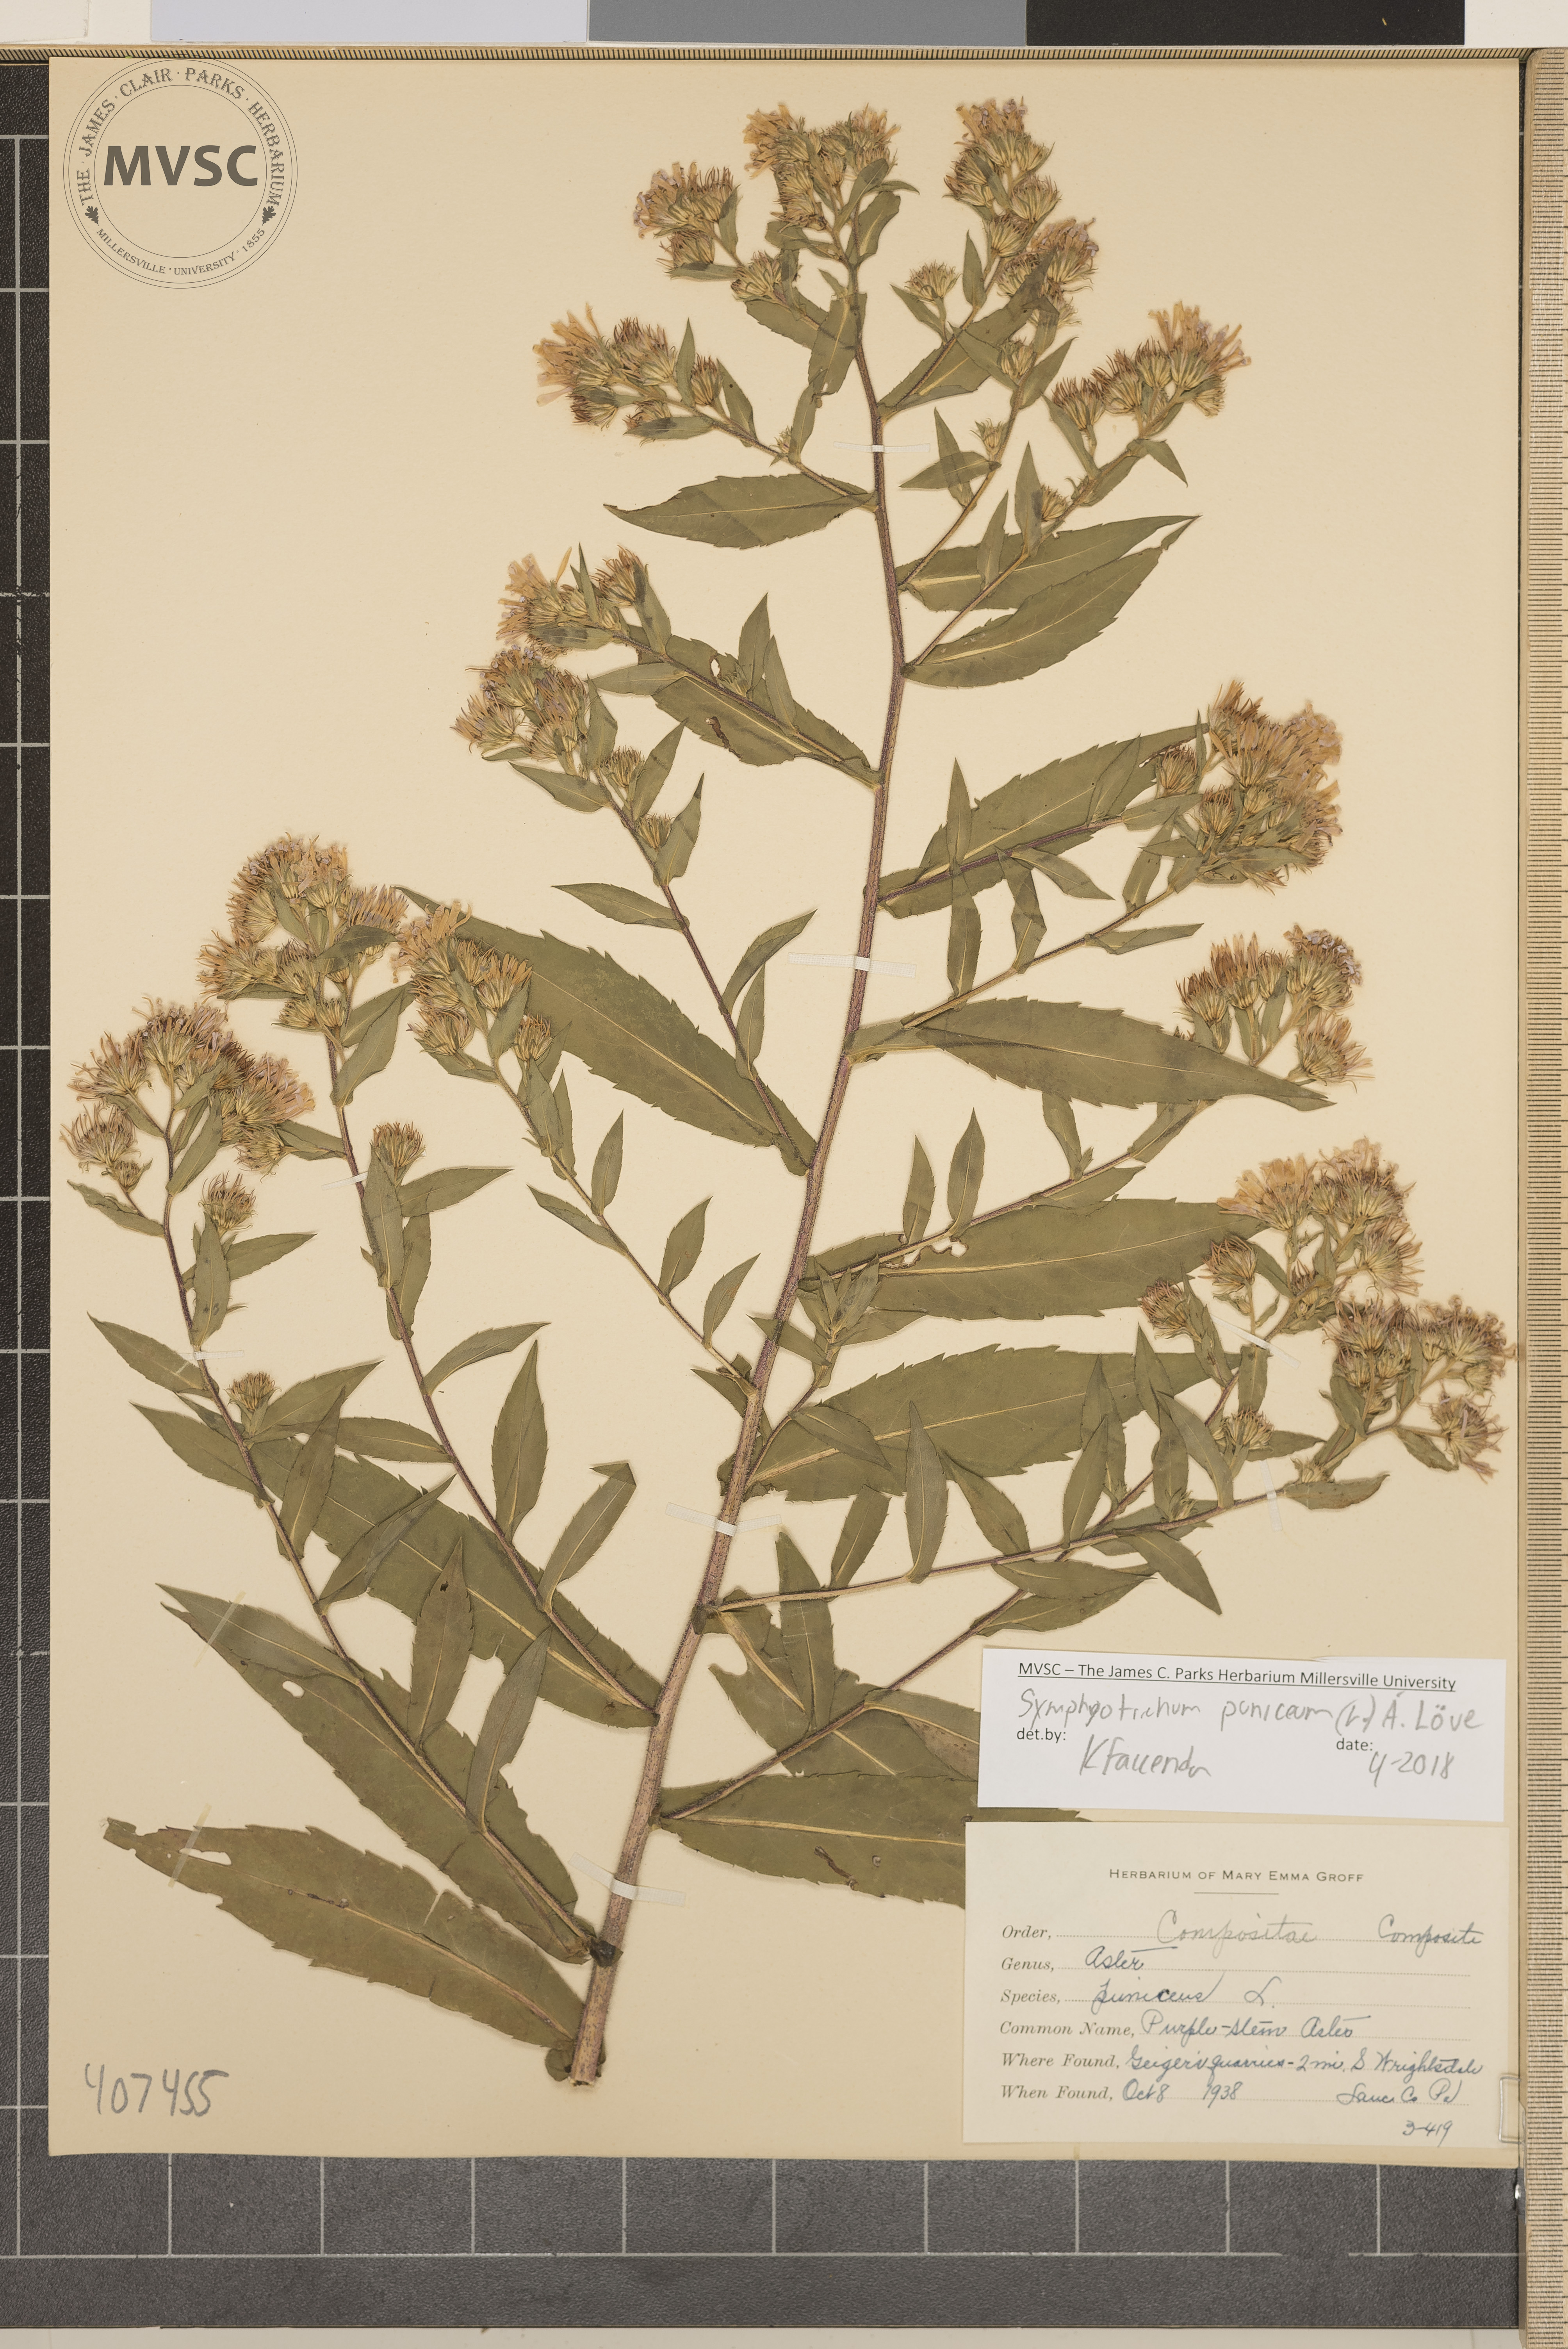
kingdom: Plantae
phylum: Tracheophyta
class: Magnoliopsida
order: Asterales
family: Asteraceae
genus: Symphyotrichum
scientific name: Symphyotrichum puniceum
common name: Purple-stem Aster
